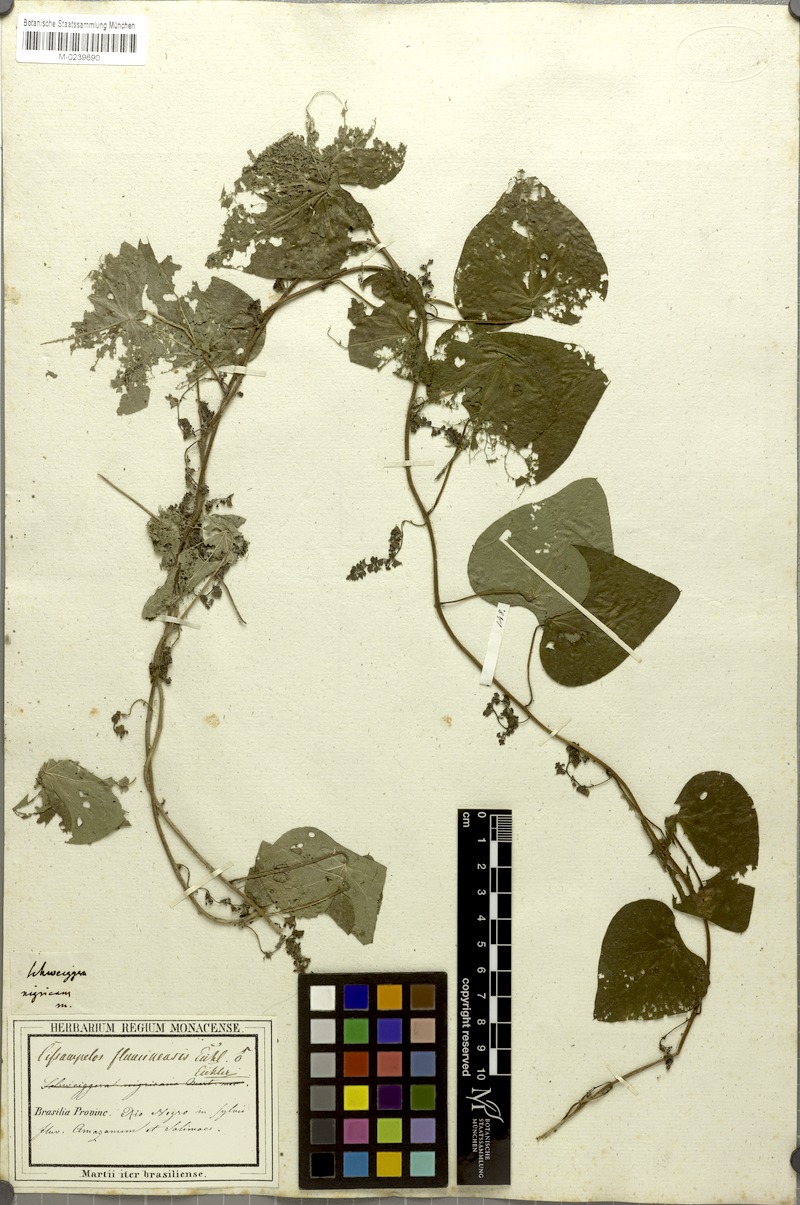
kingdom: Plantae
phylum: Tracheophyta
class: Magnoliopsida
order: Ranunculales
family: Menispermaceae
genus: Cissampelos
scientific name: Cissampelos tropaeolifolia
